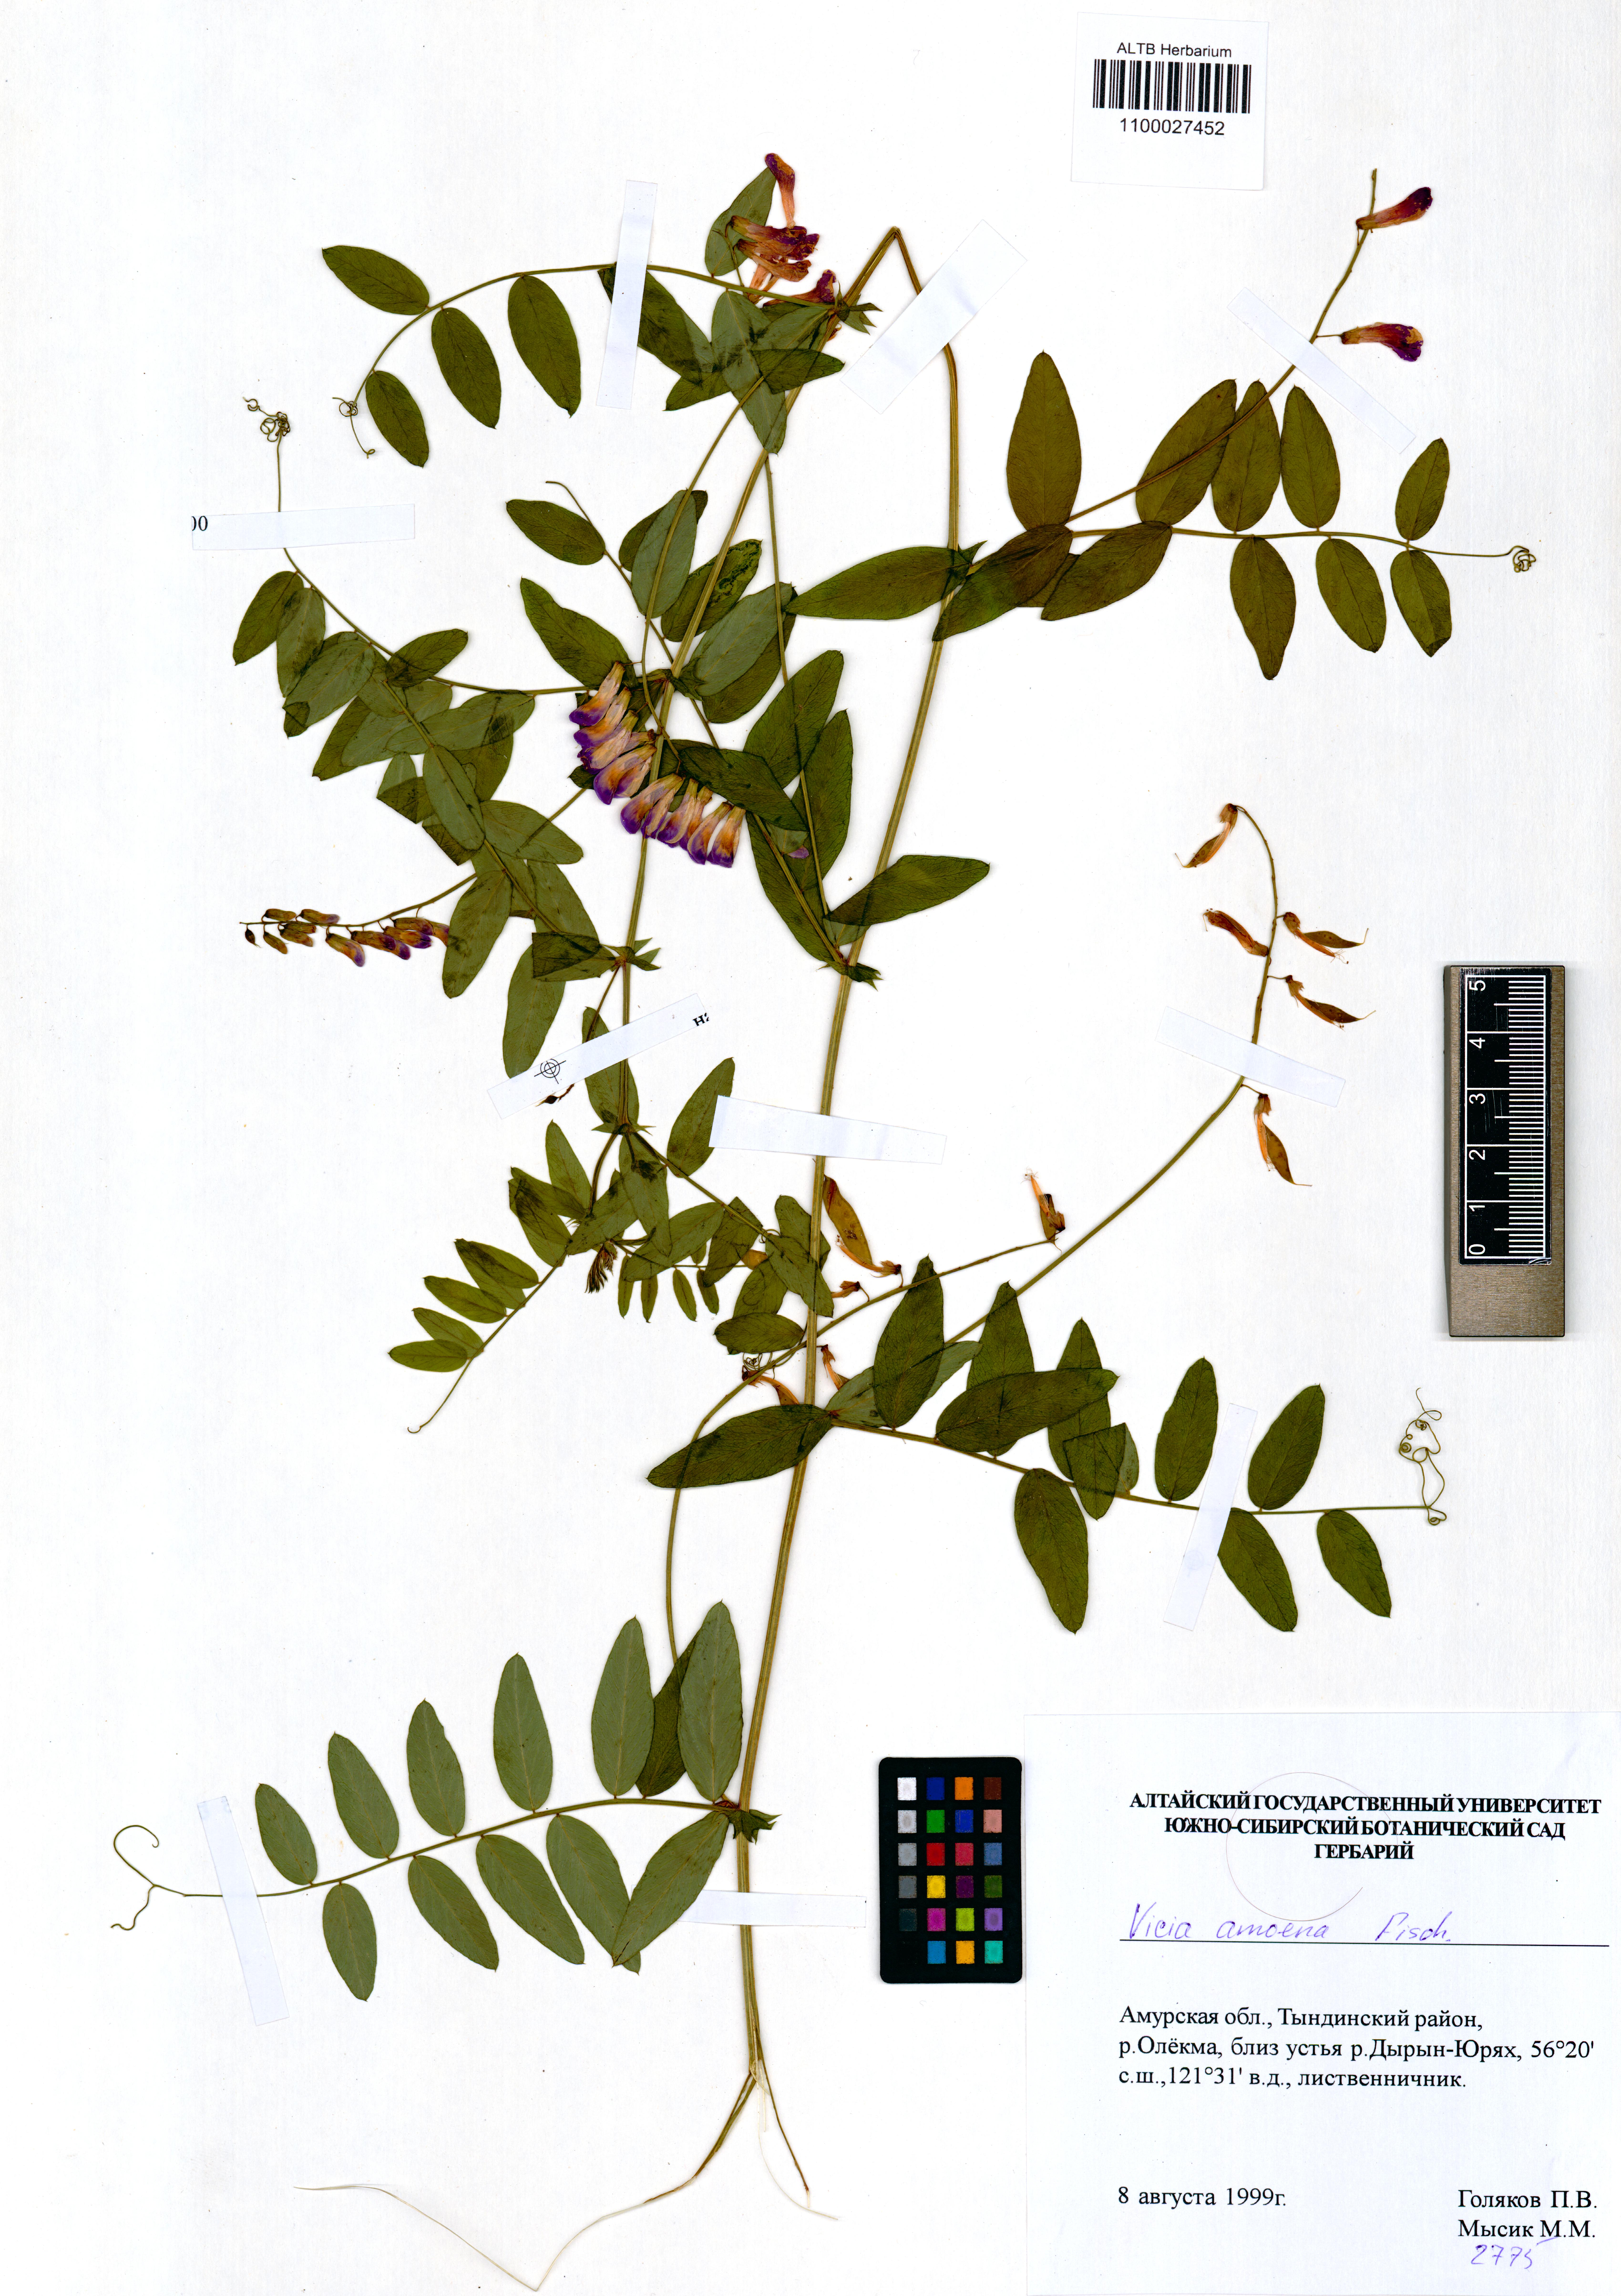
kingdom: Plantae
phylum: Tracheophyta
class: Magnoliopsida
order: Fabales
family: Fabaceae
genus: Vicia
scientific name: Vicia amoena
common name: Cheder ebs
